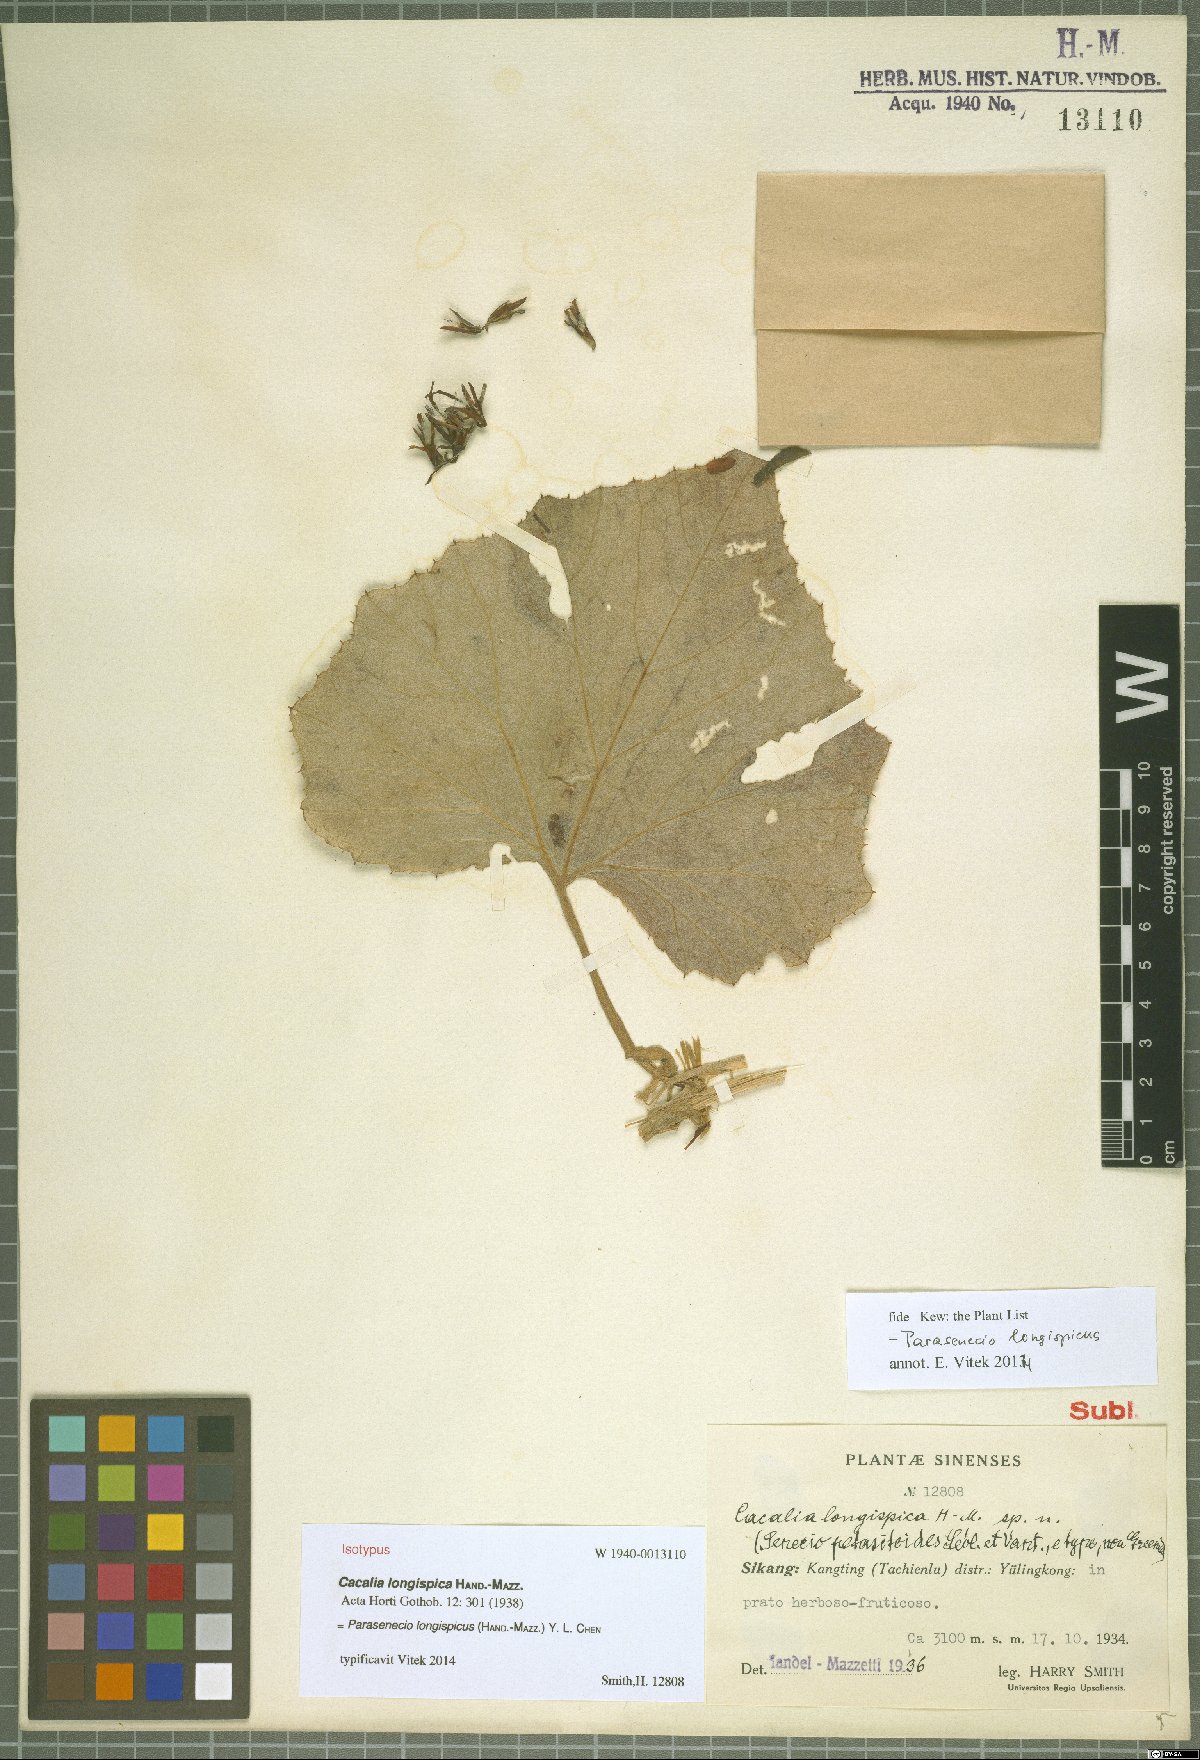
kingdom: Plantae
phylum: Tracheophyta
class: Magnoliopsida
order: Asterales
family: Asteraceae
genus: Parasenecio
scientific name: Parasenecio longispicus
